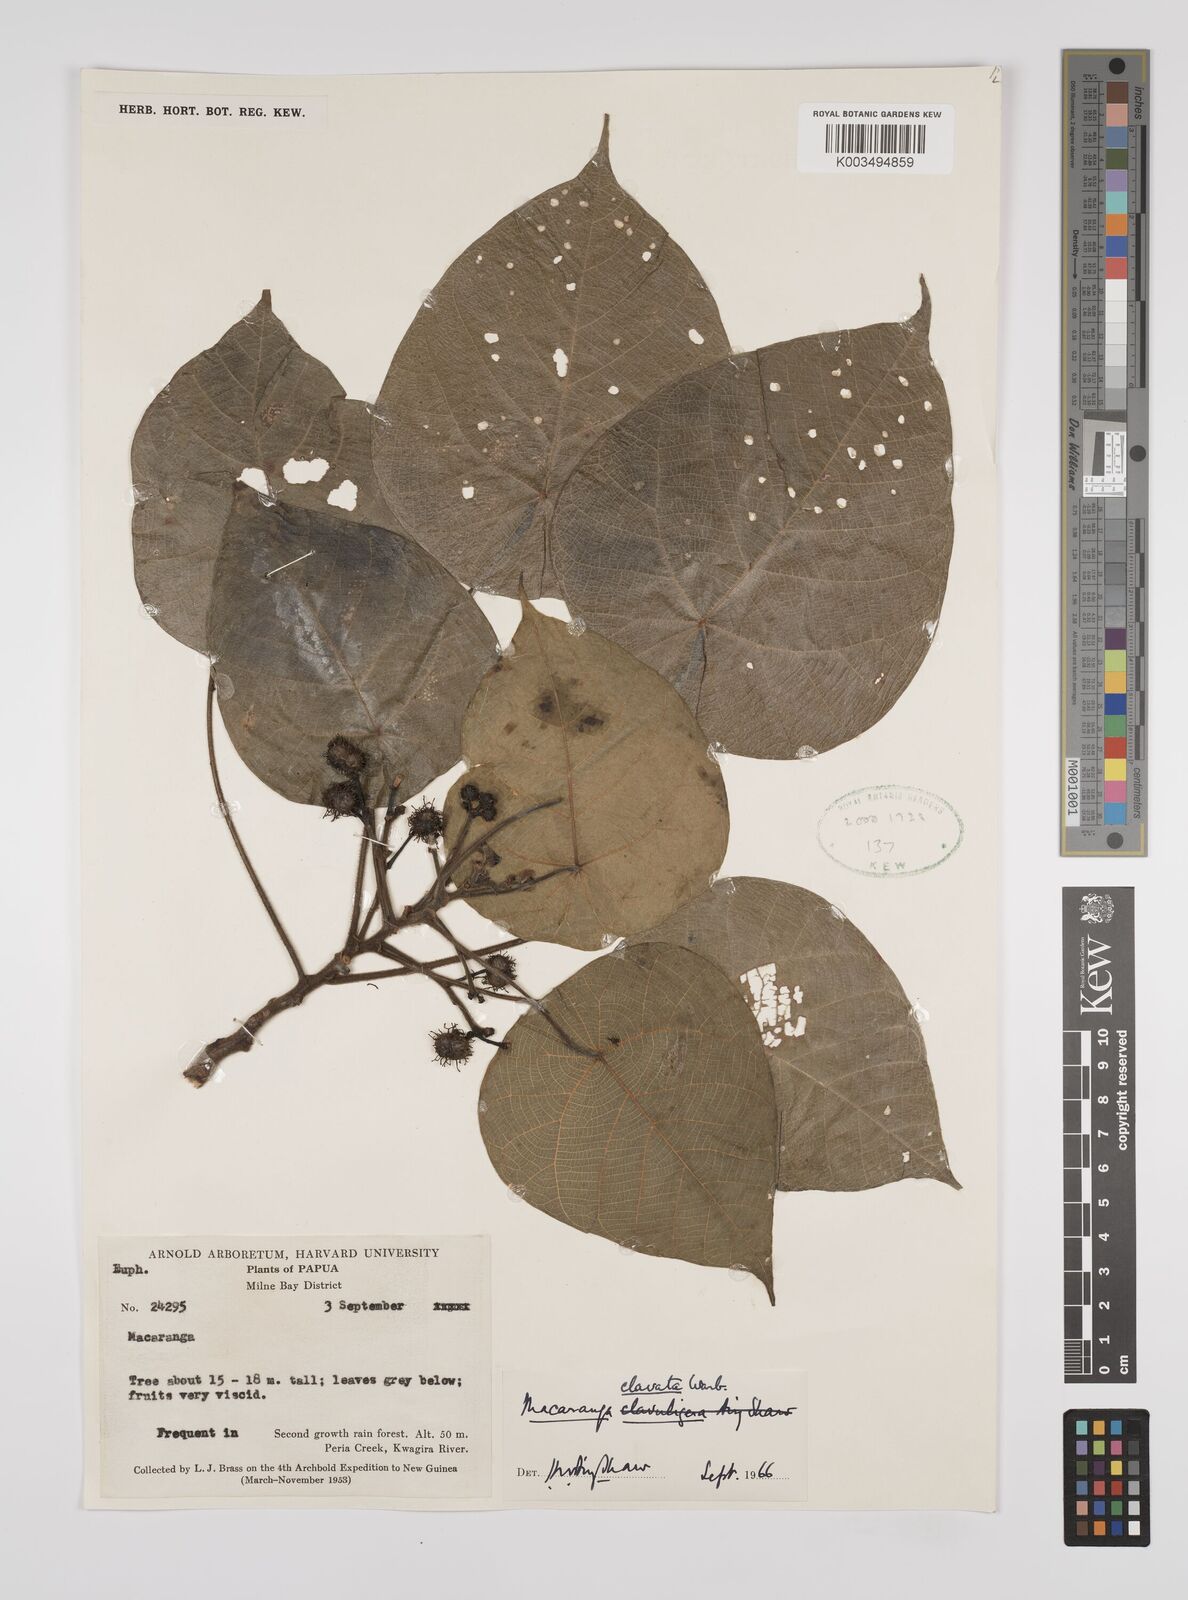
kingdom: Plantae
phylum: Tracheophyta
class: Magnoliopsida
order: Malpighiales
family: Euphorbiaceae
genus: Macaranga
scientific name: Macaranga clavata
